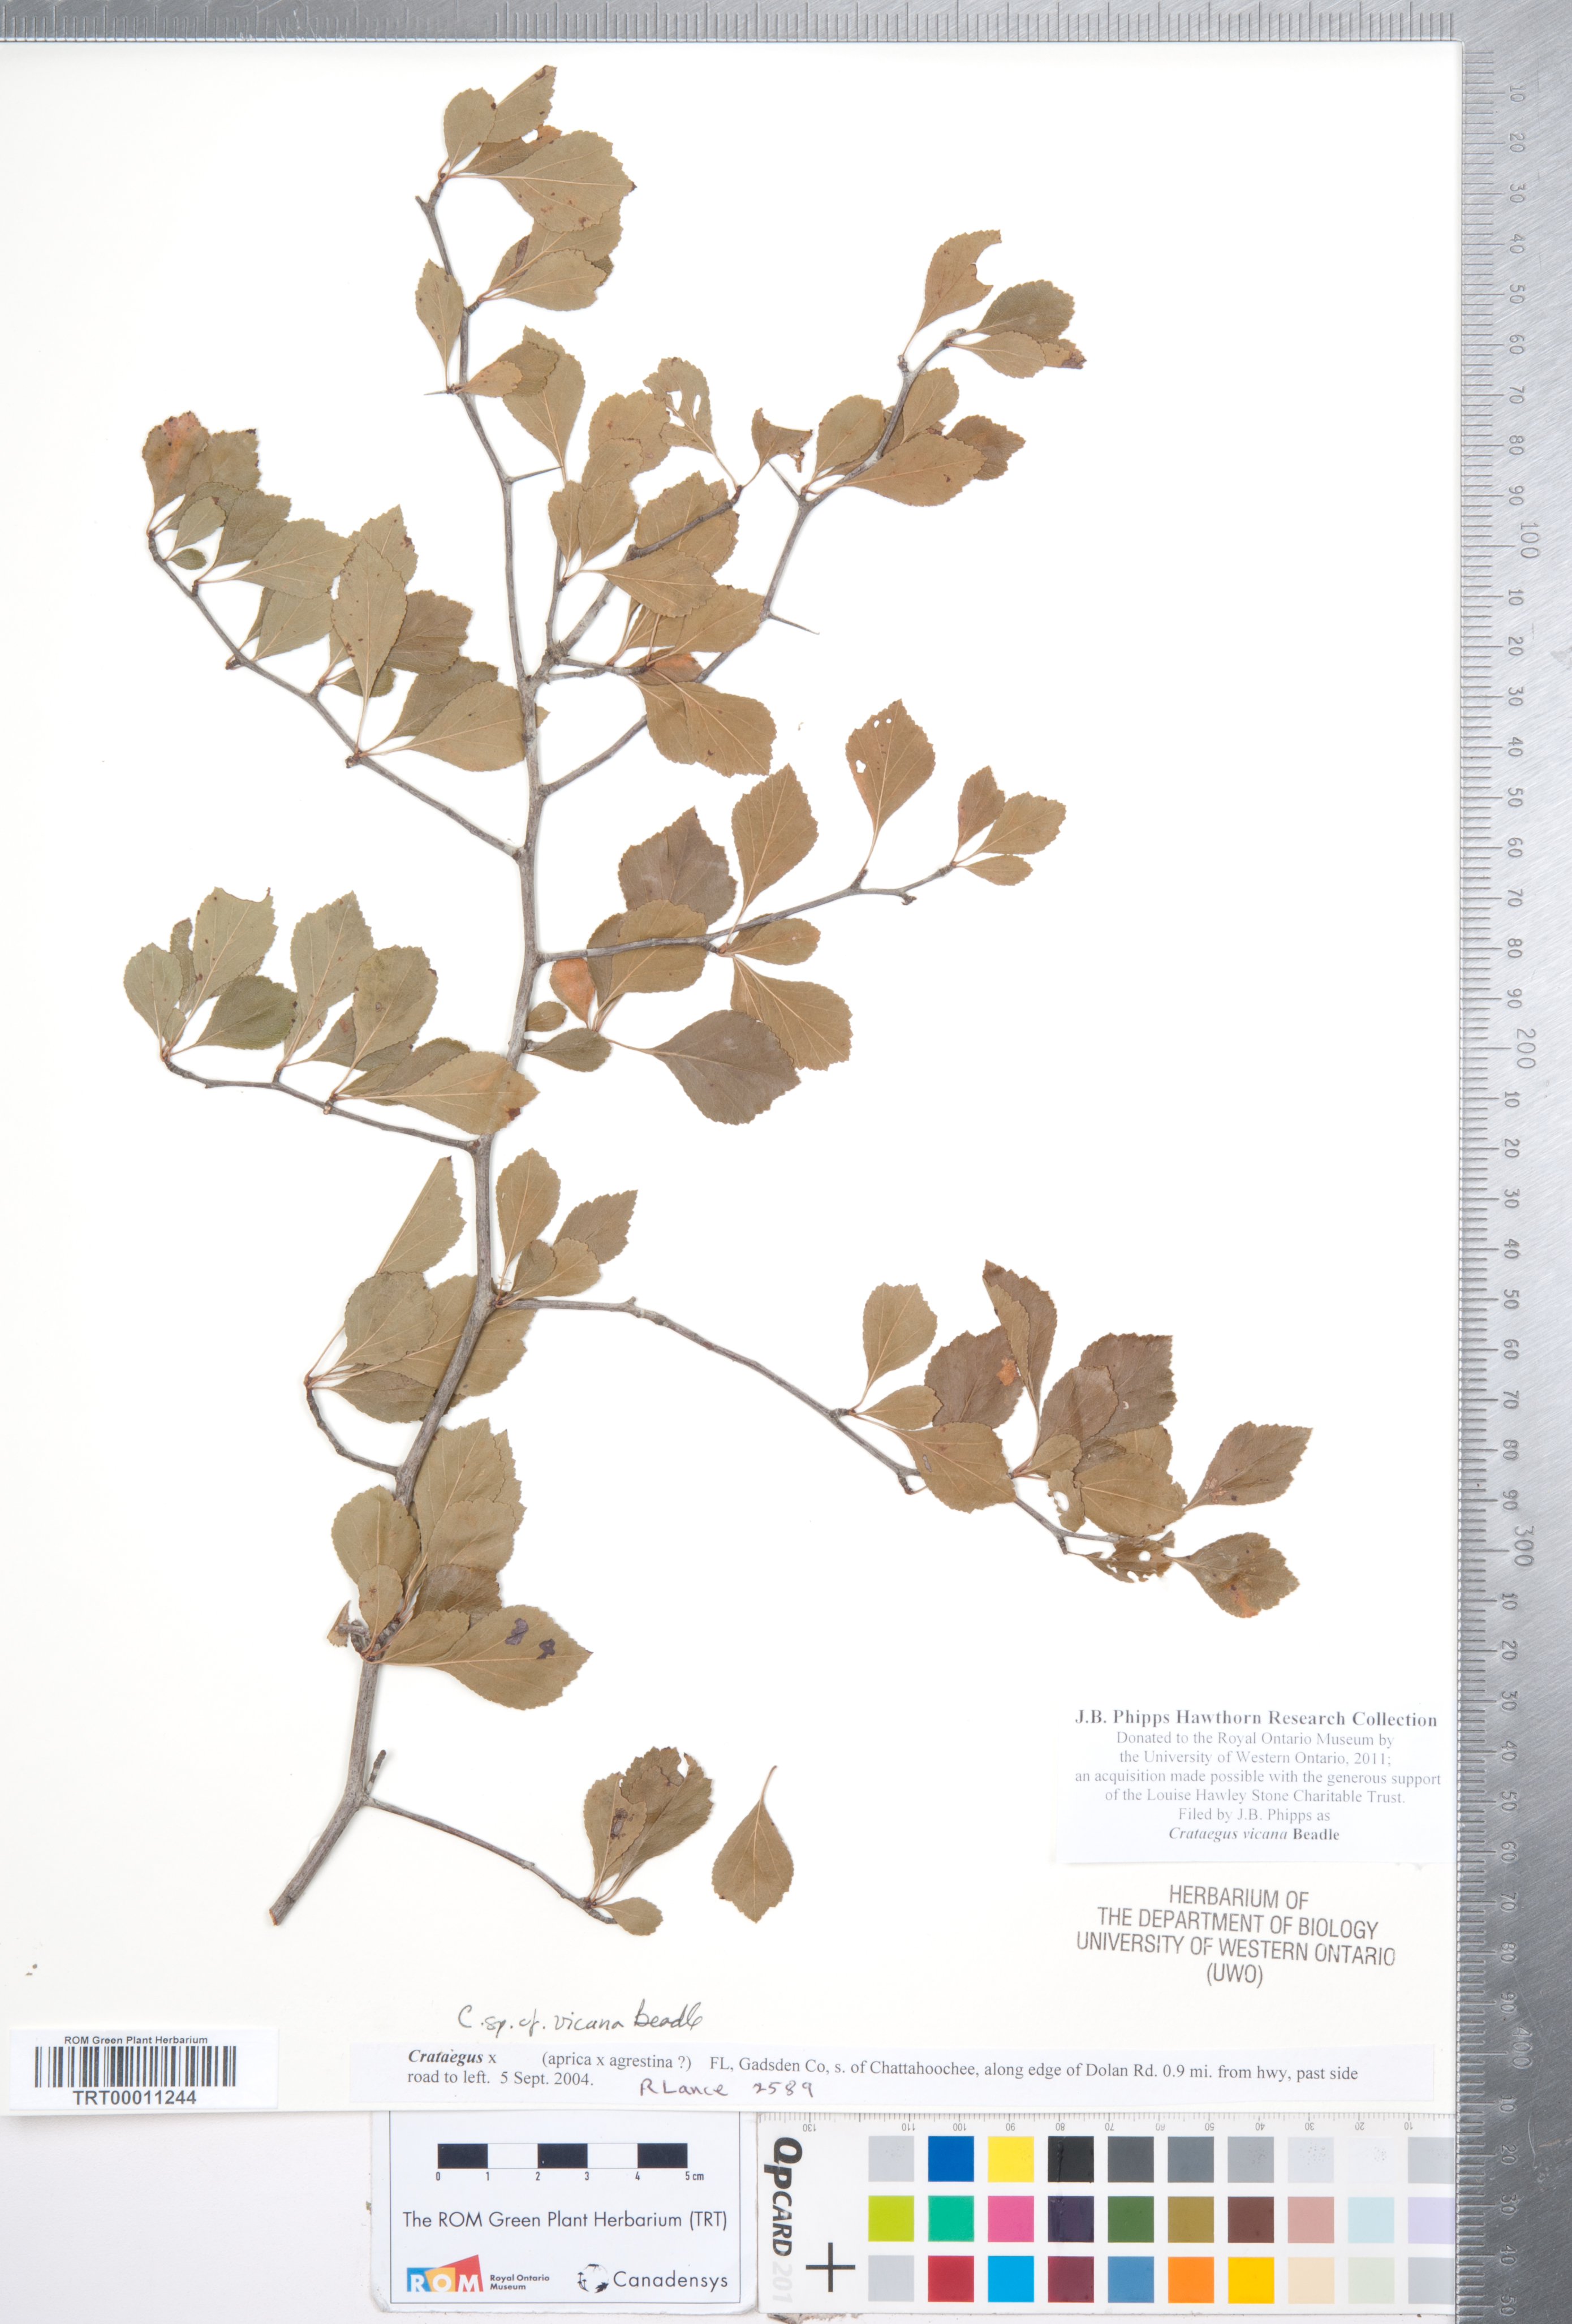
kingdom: Plantae
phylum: Tracheophyta
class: Magnoliopsida
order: Rosales
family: Rosaceae
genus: Crataegus
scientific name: Crataegus lassa
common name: Florida hawthorn
